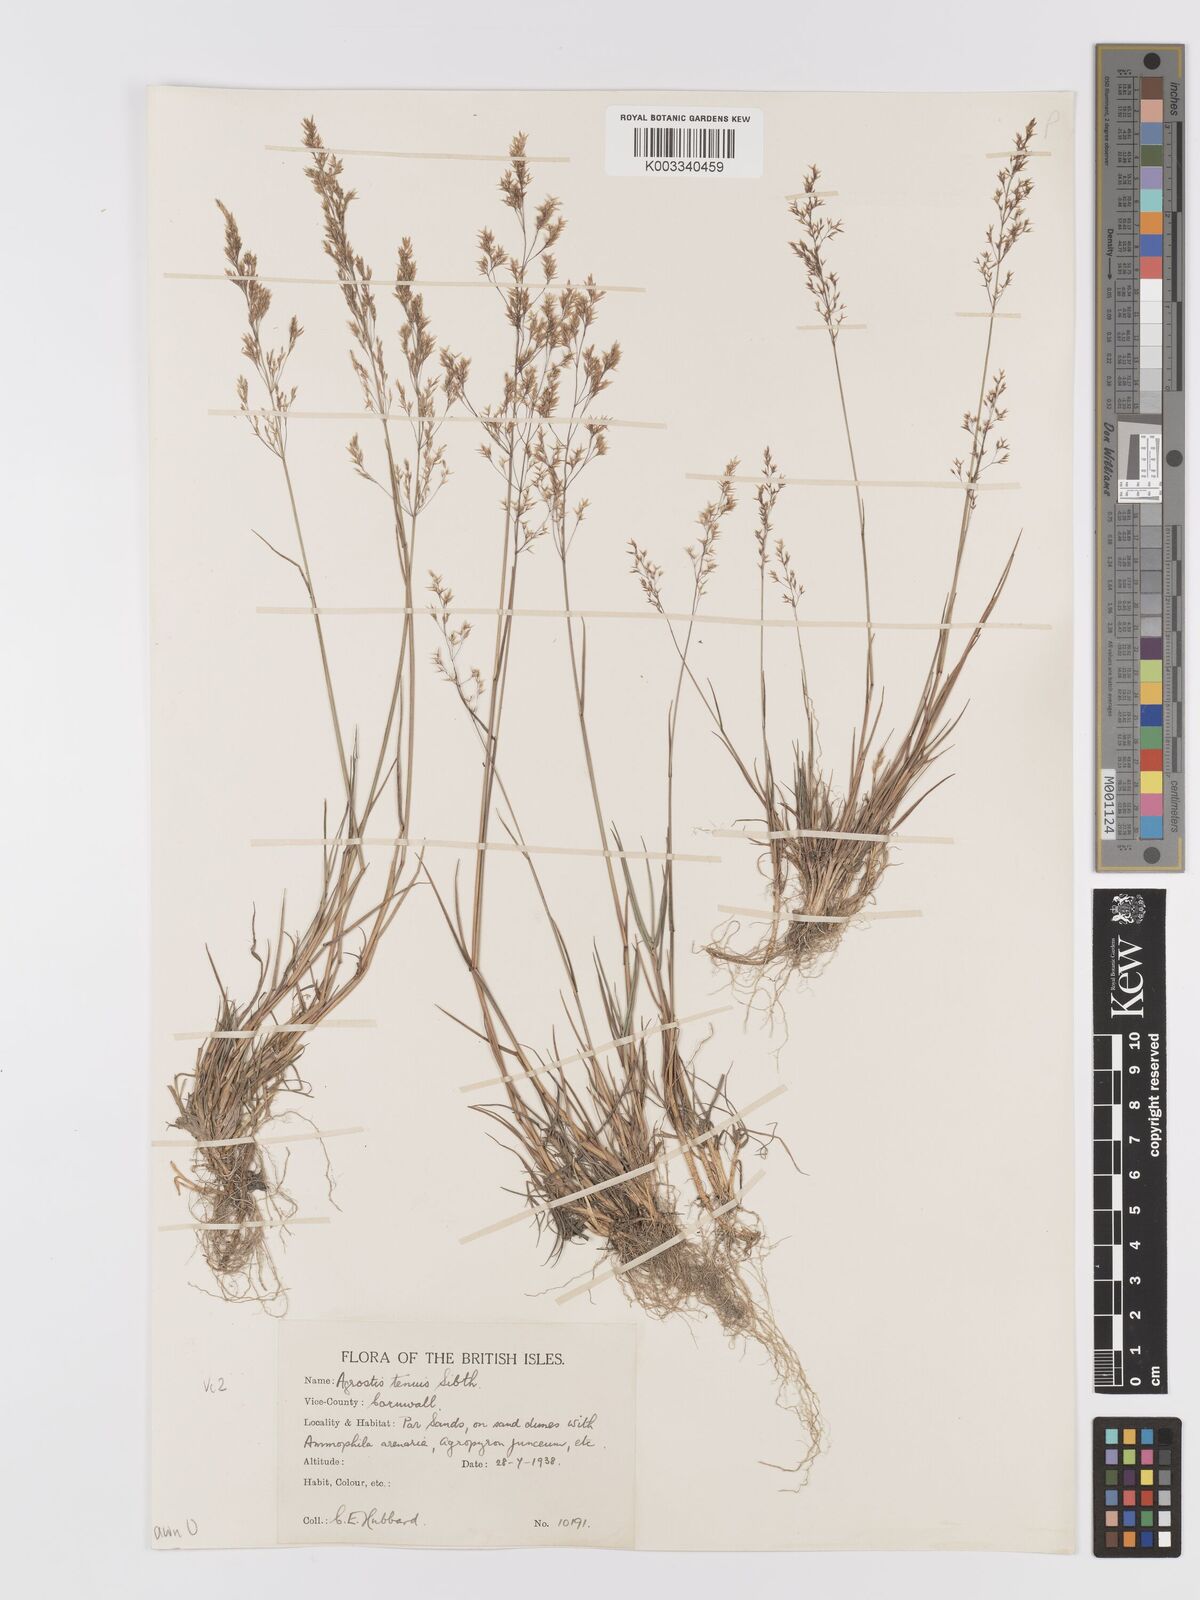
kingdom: Plantae
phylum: Tracheophyta
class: Liliopsida
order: Poales
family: Poaceae
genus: Agrostis
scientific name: Agrostis capillaris
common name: Colonial bentgrass
